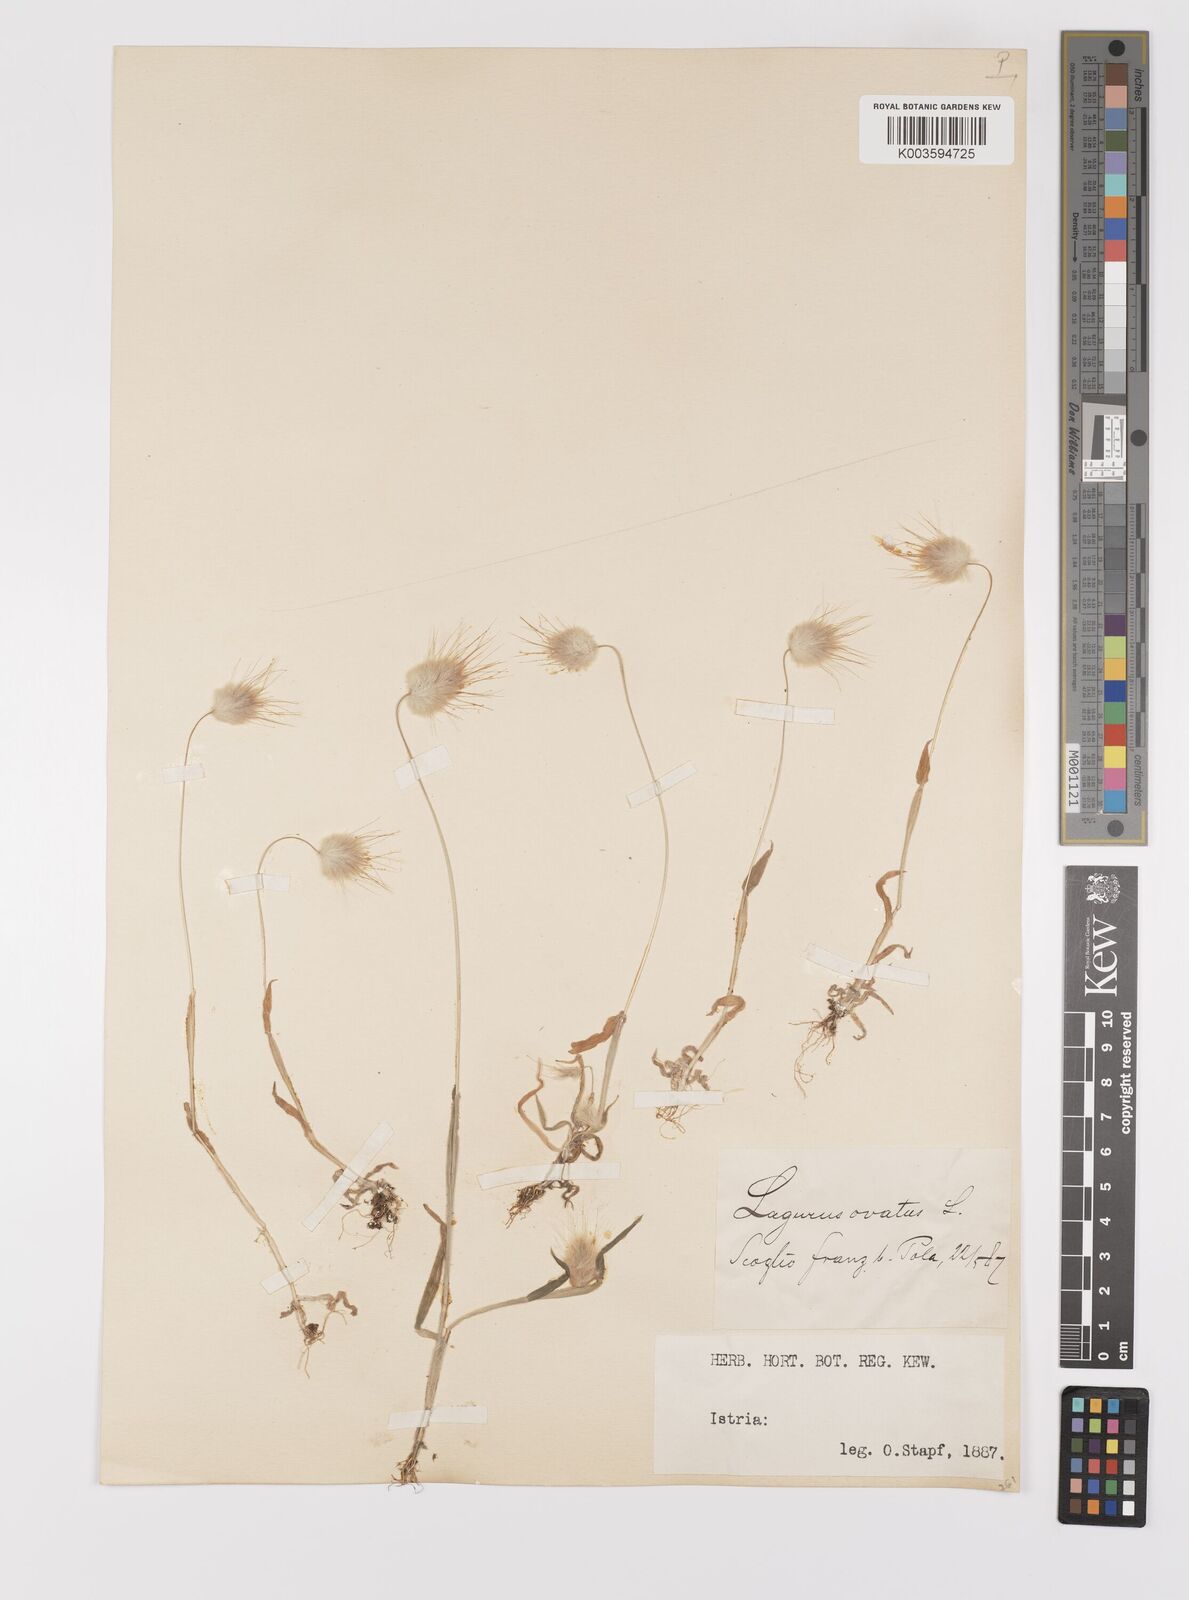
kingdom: Plantae
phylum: Tracheophyta
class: Liliopsida
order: Poales
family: Poaceae
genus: Lagurus
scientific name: Lagurus ovatus
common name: Hare's-tail
